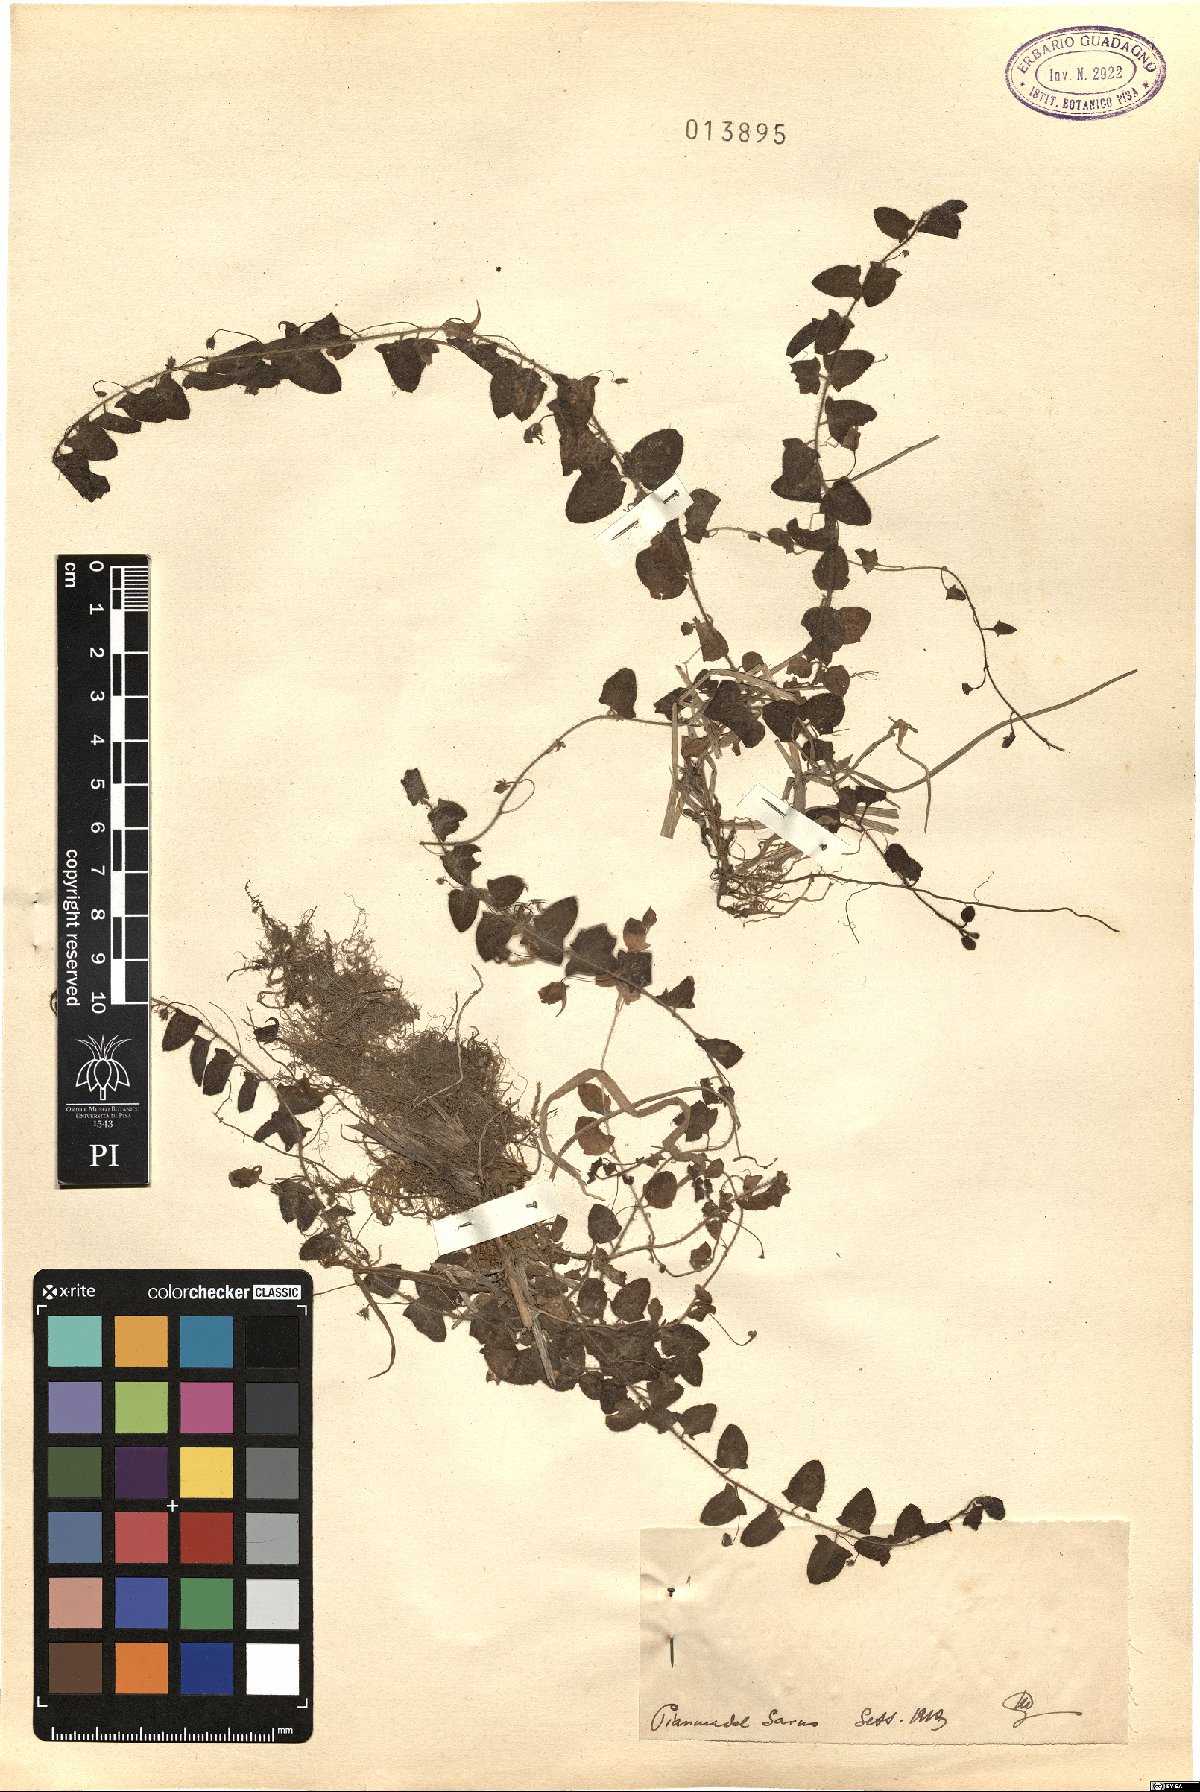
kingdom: Plantae
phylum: Tracheophyta
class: Magnoliopsida
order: Lamiales
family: Plantaginaceae
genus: Linaria
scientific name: Linaria
